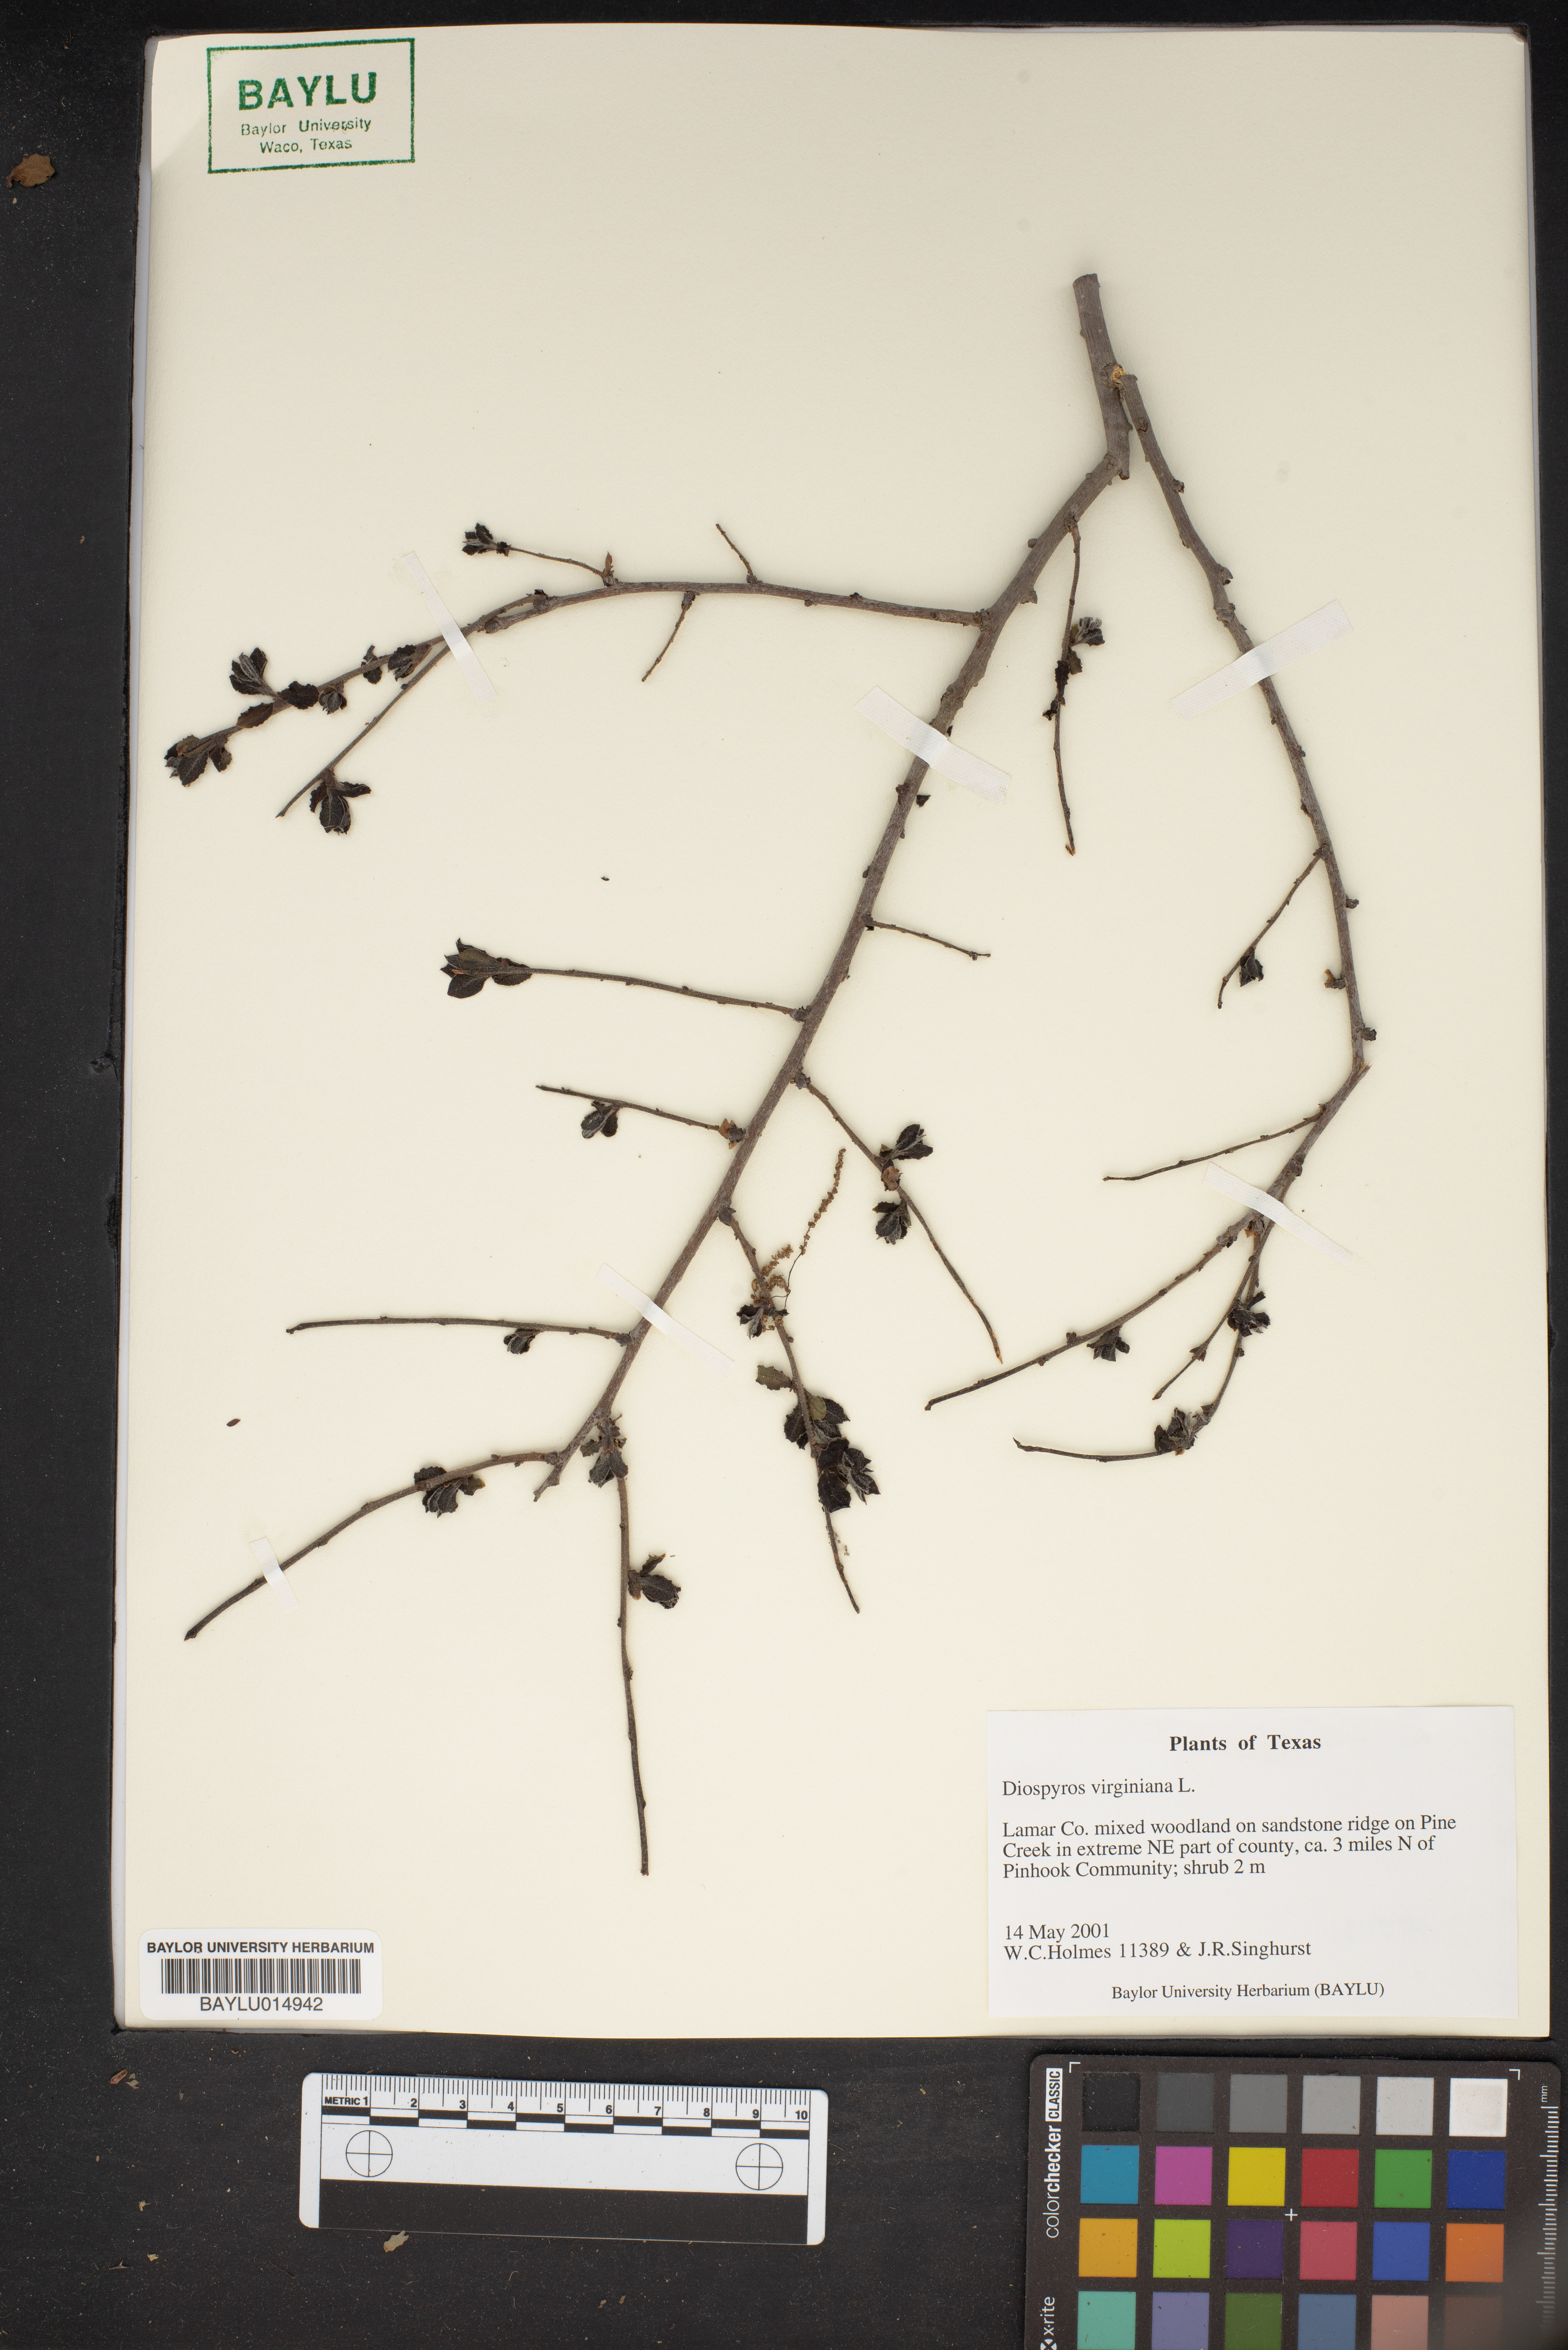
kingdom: Plantae
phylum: Tracheophyta
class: Magnoliopsida
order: Ericales
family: Ebenaceae
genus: Diospyros
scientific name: Diospyros virginiana
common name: Persimmon
